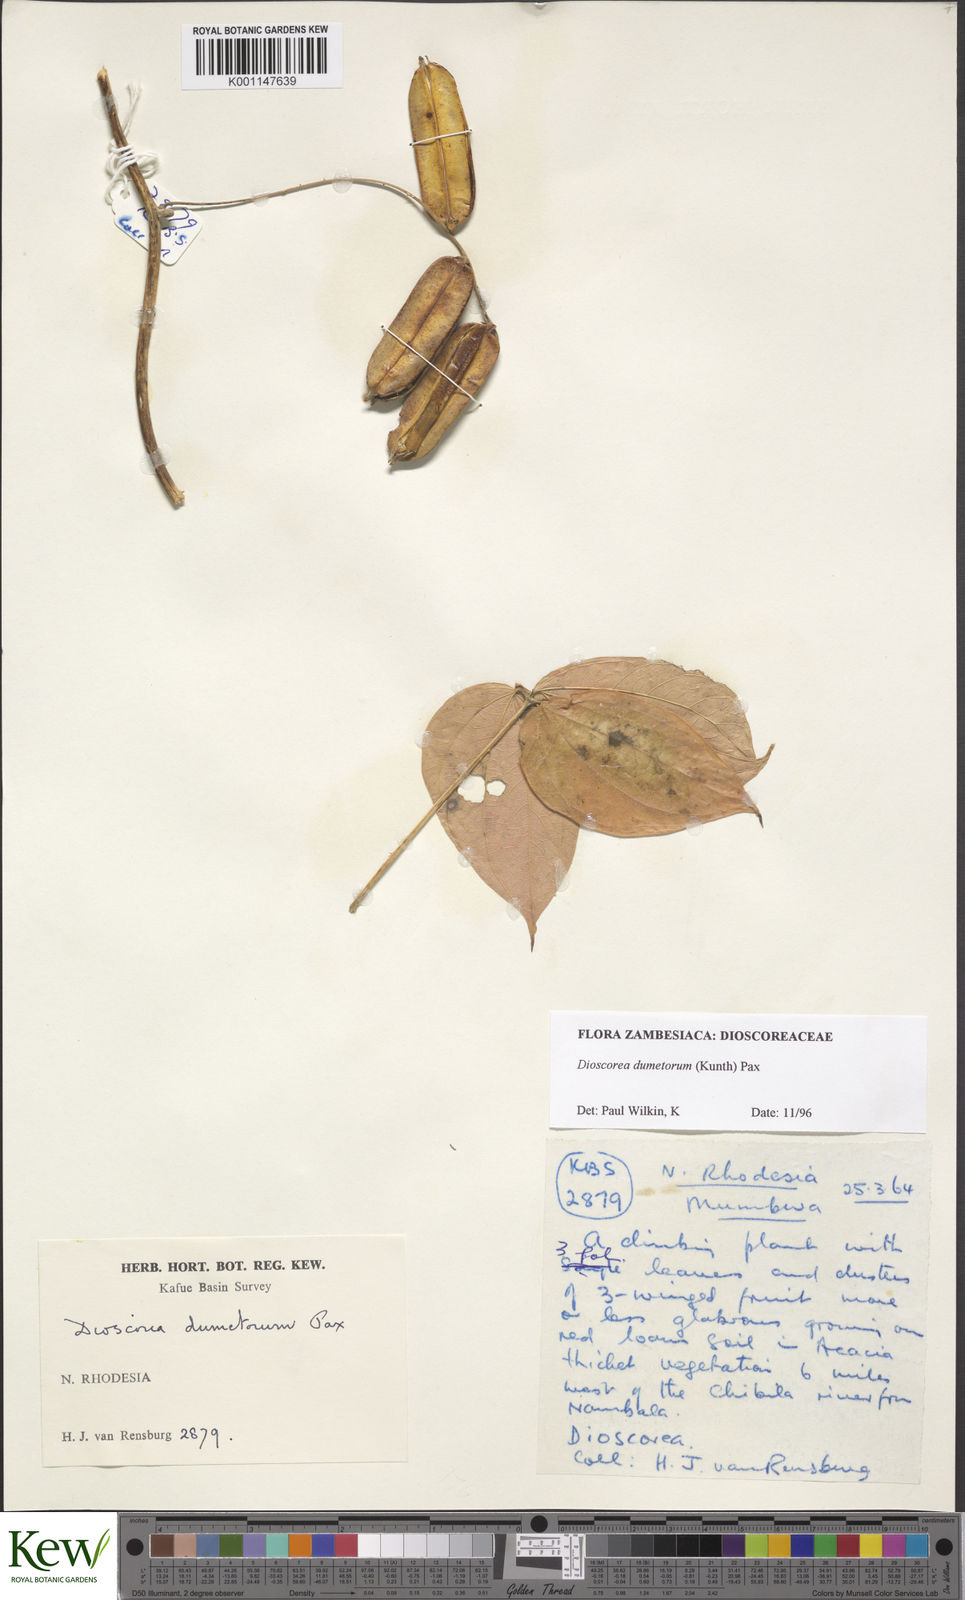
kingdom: Plantae
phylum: Tracheophyta
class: Liliopsida
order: Dioscoreales
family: Dioscoreaceae
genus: Dioscorea
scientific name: Dioscorea dumetorum
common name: African bitter yam
